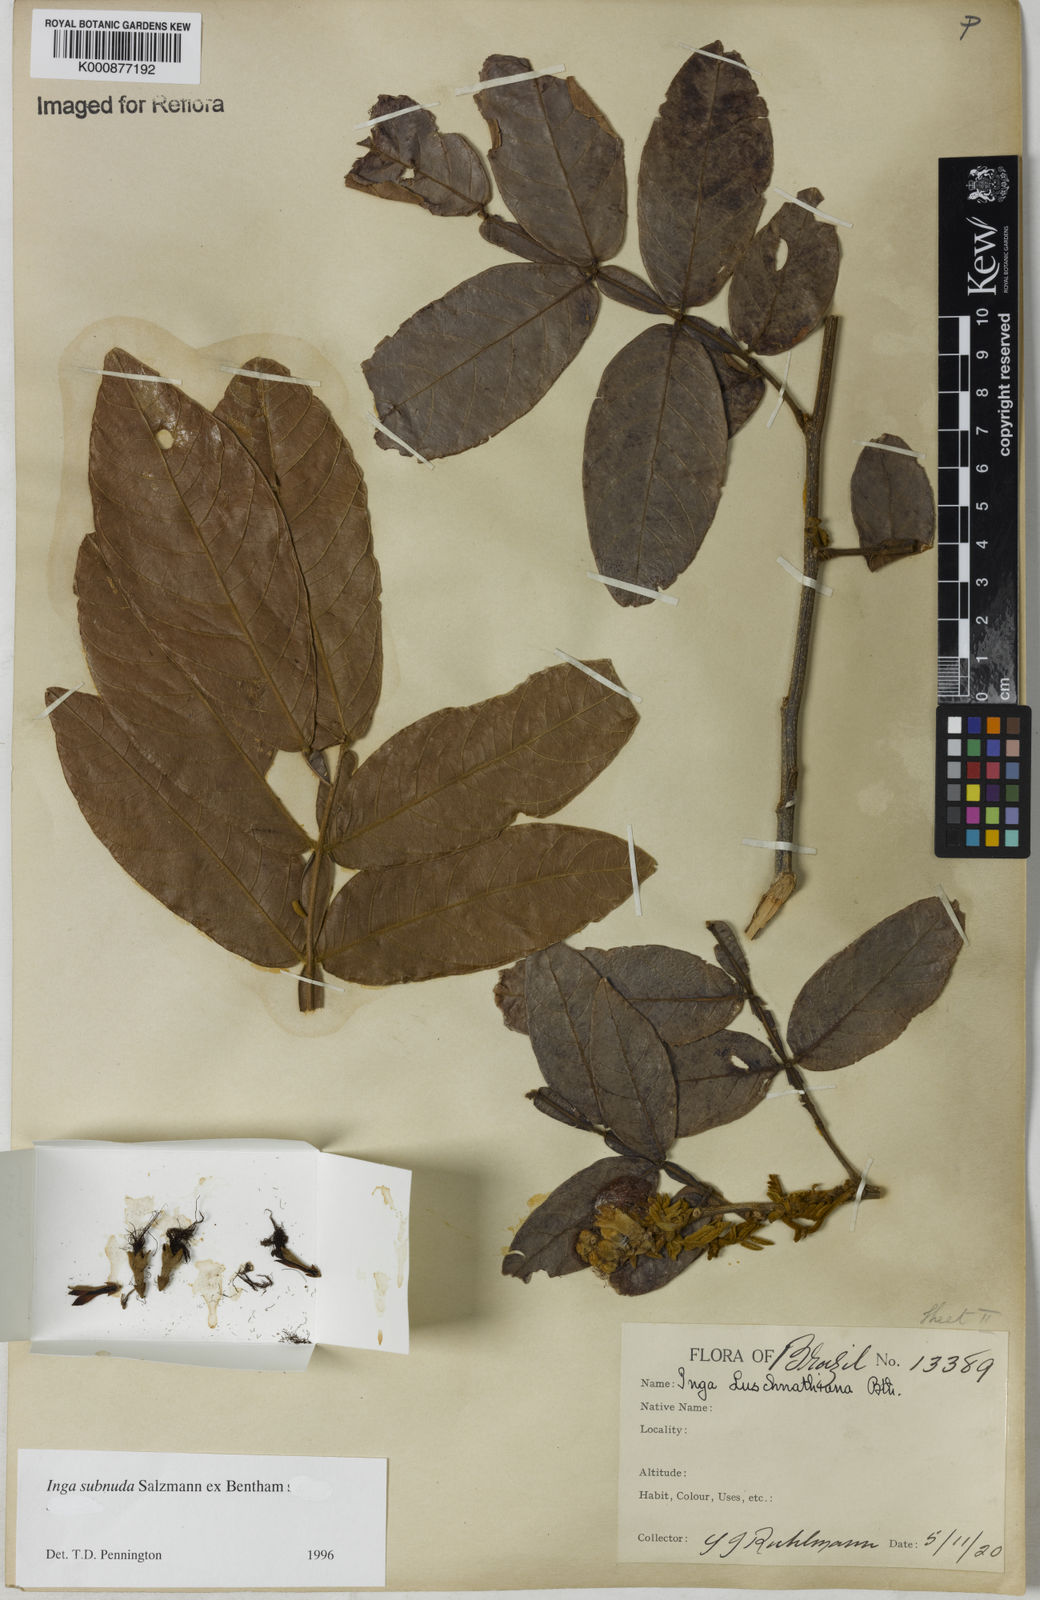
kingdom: Plantae
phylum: Tracheophyta
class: Magnoliopsida
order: Fabales
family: Fabaceae
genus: Inga
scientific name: Inga subnuda
